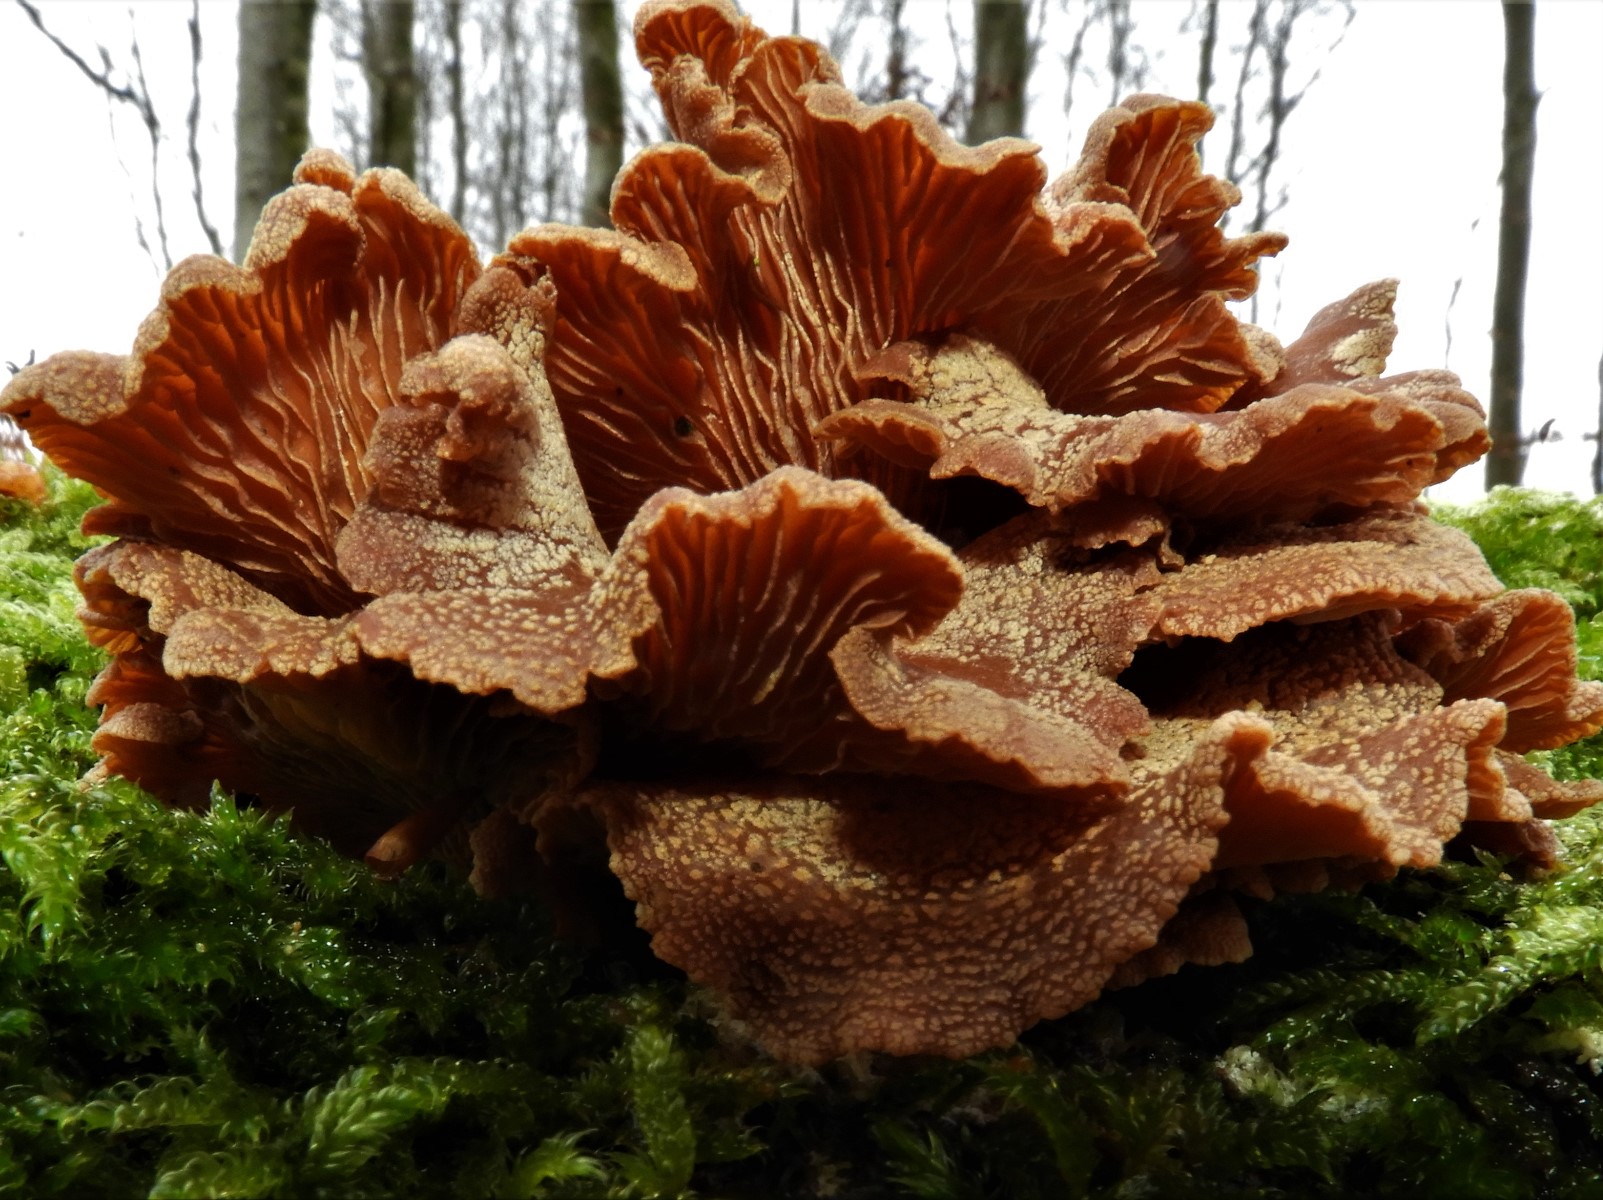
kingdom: Fungi
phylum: Basidiomycota
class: Agaricomycetes
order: Agaricales
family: Mycenaceae
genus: Panellus
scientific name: Panellus stipticus
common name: kliddet epaulethat
